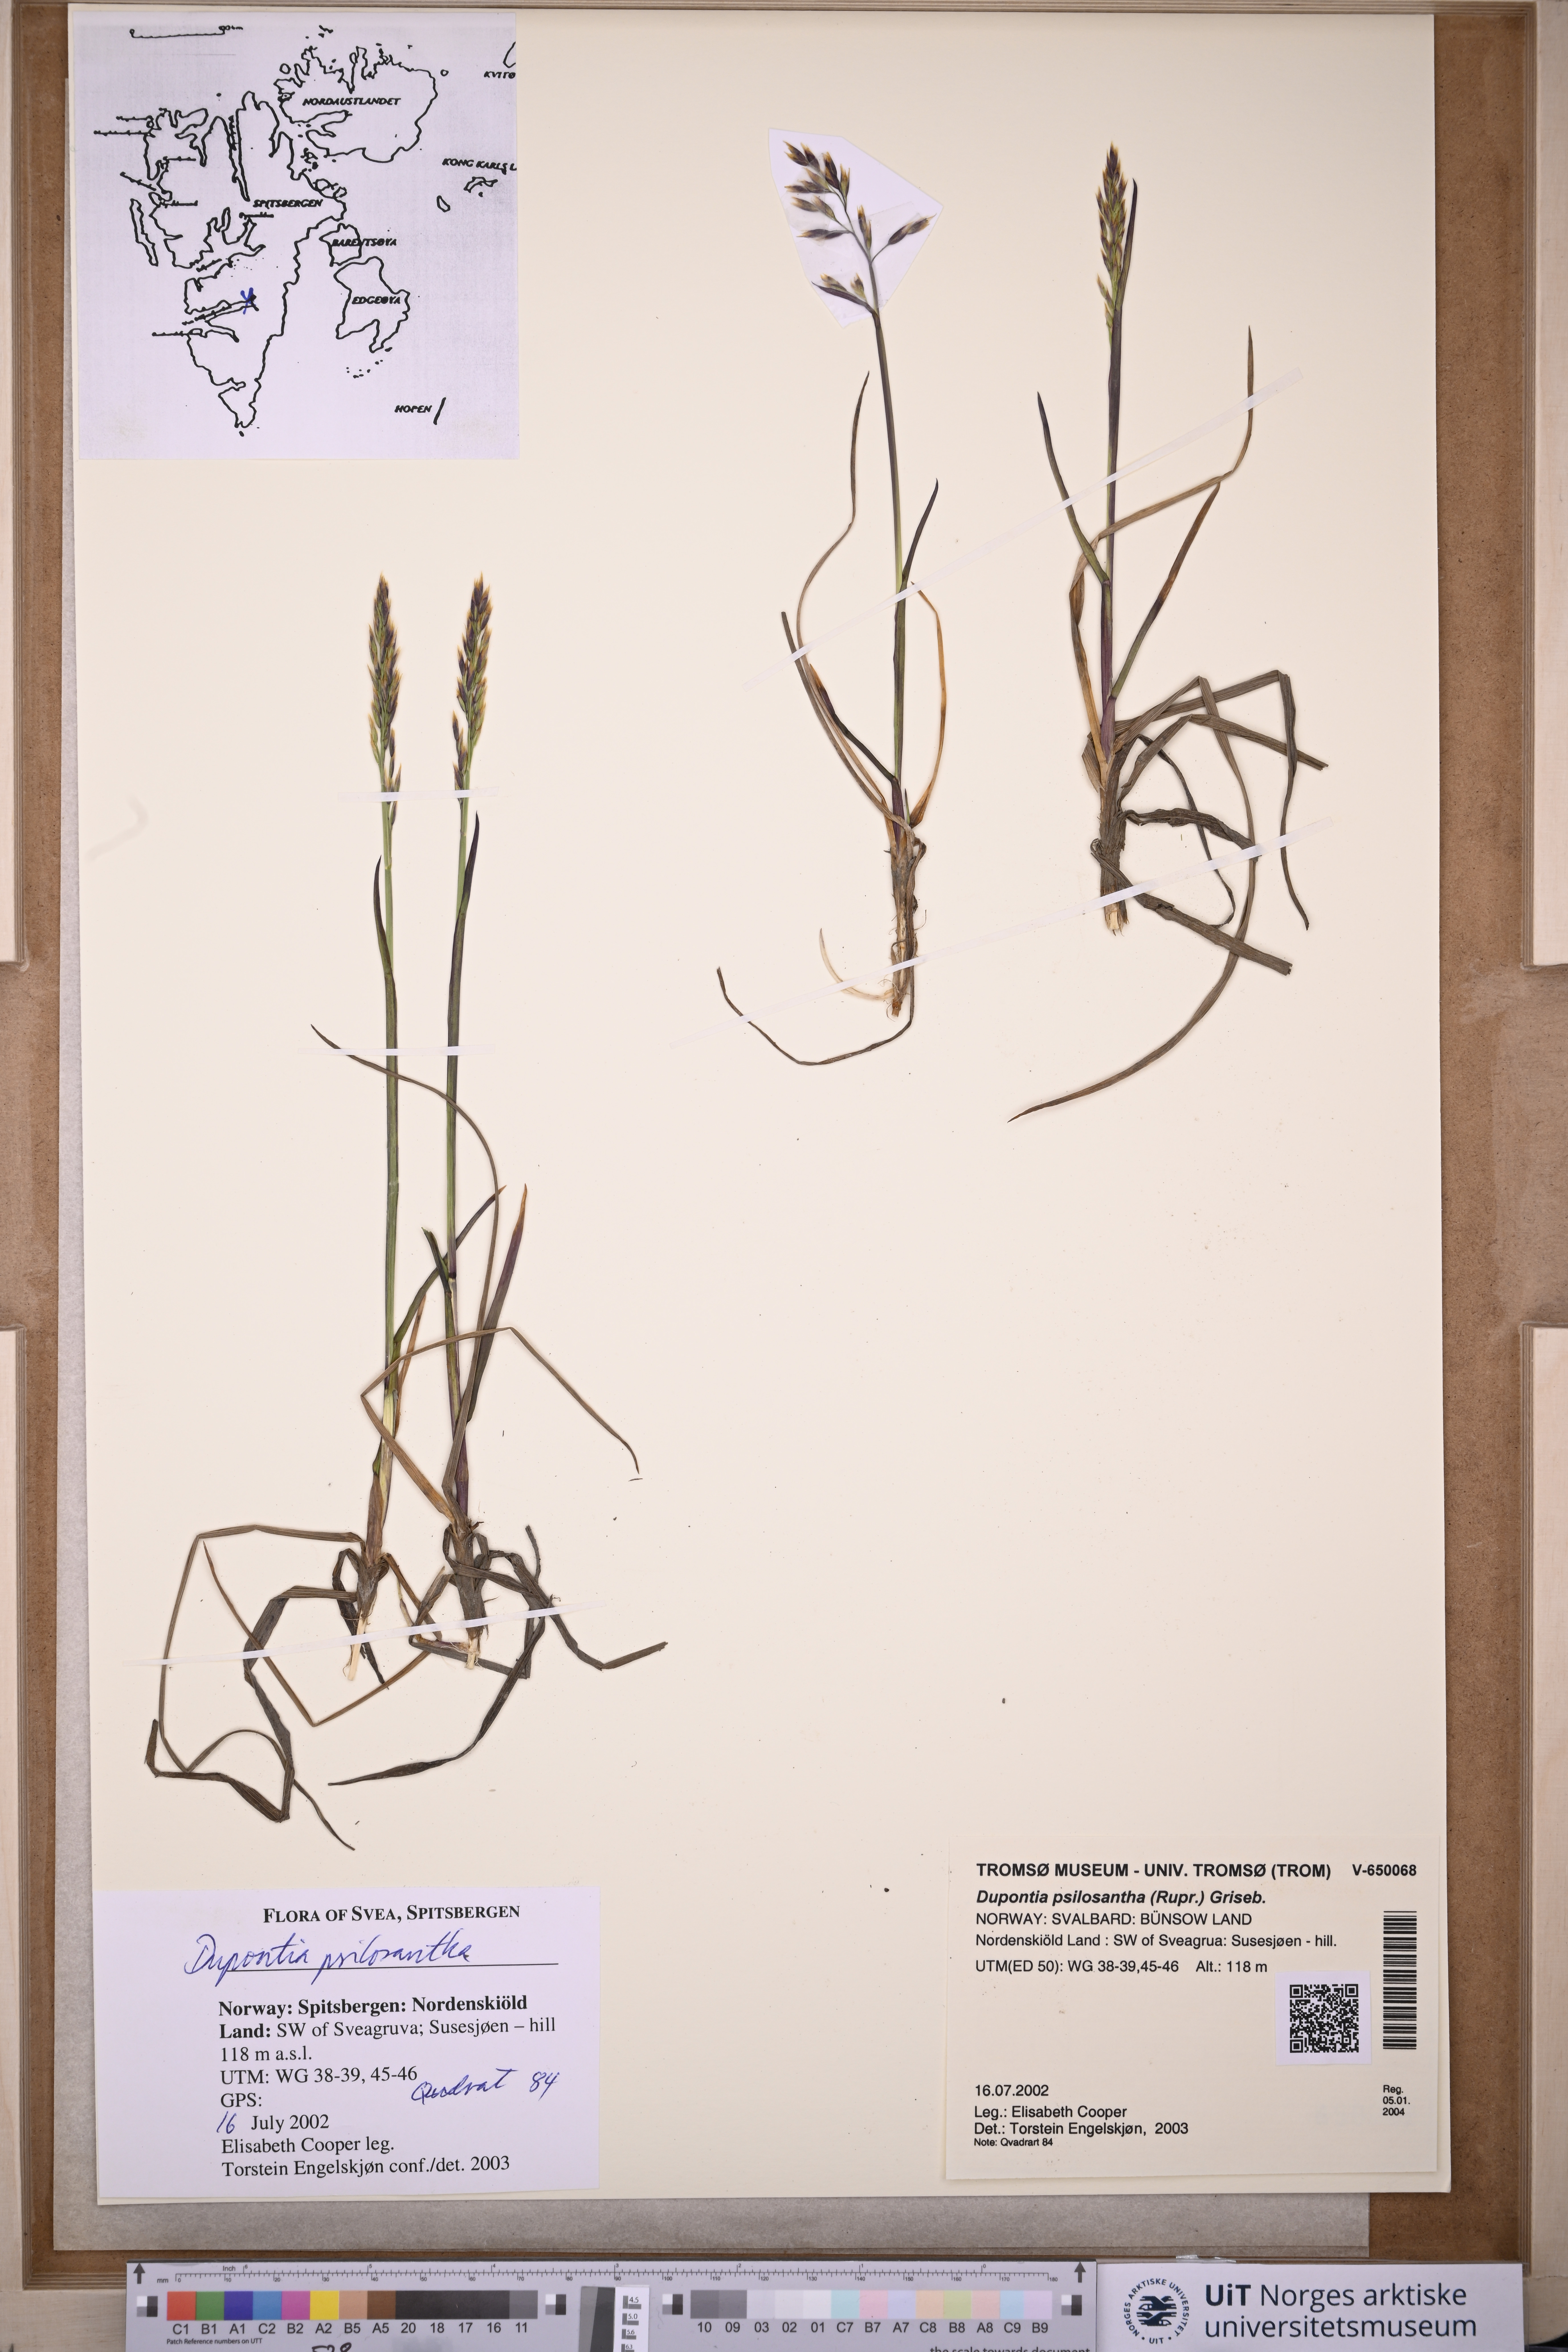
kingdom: Plantae
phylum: Tracheophyta
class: Liliopsida
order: Poales
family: Poaceae
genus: Dupontia
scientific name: Dupontia fisheri
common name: Tundra grass
